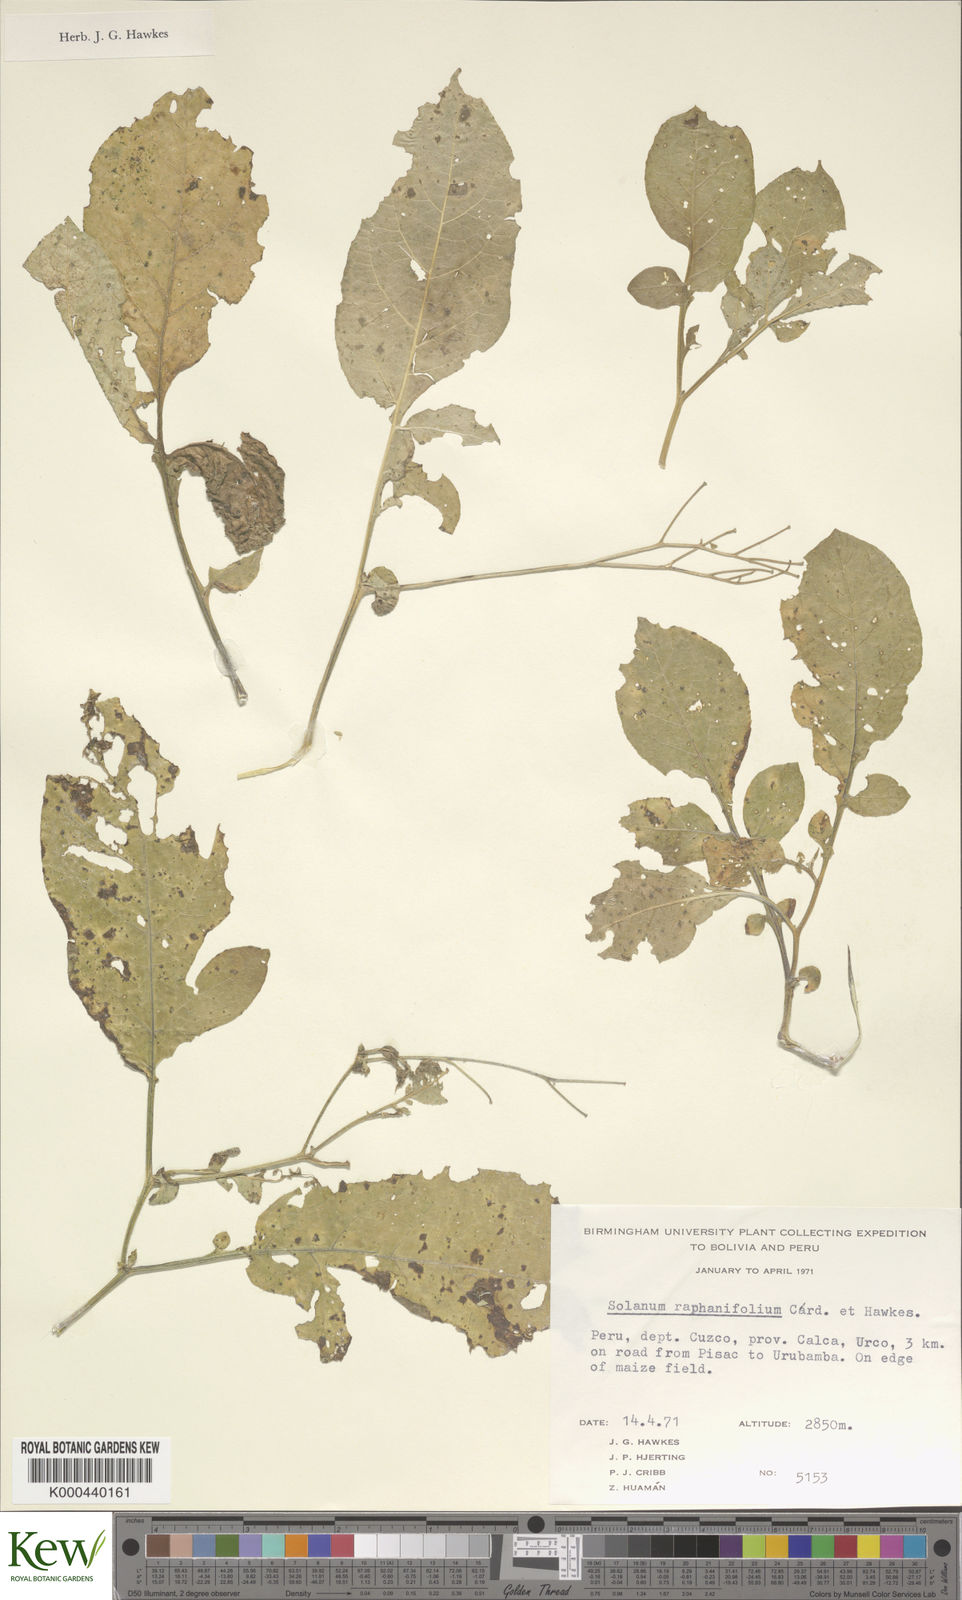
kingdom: Plantae
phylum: Tracheophyta
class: Magnoliopsida
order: Solanales
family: Solanaceae
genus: Solanum
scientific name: Solanum raphanifolium
